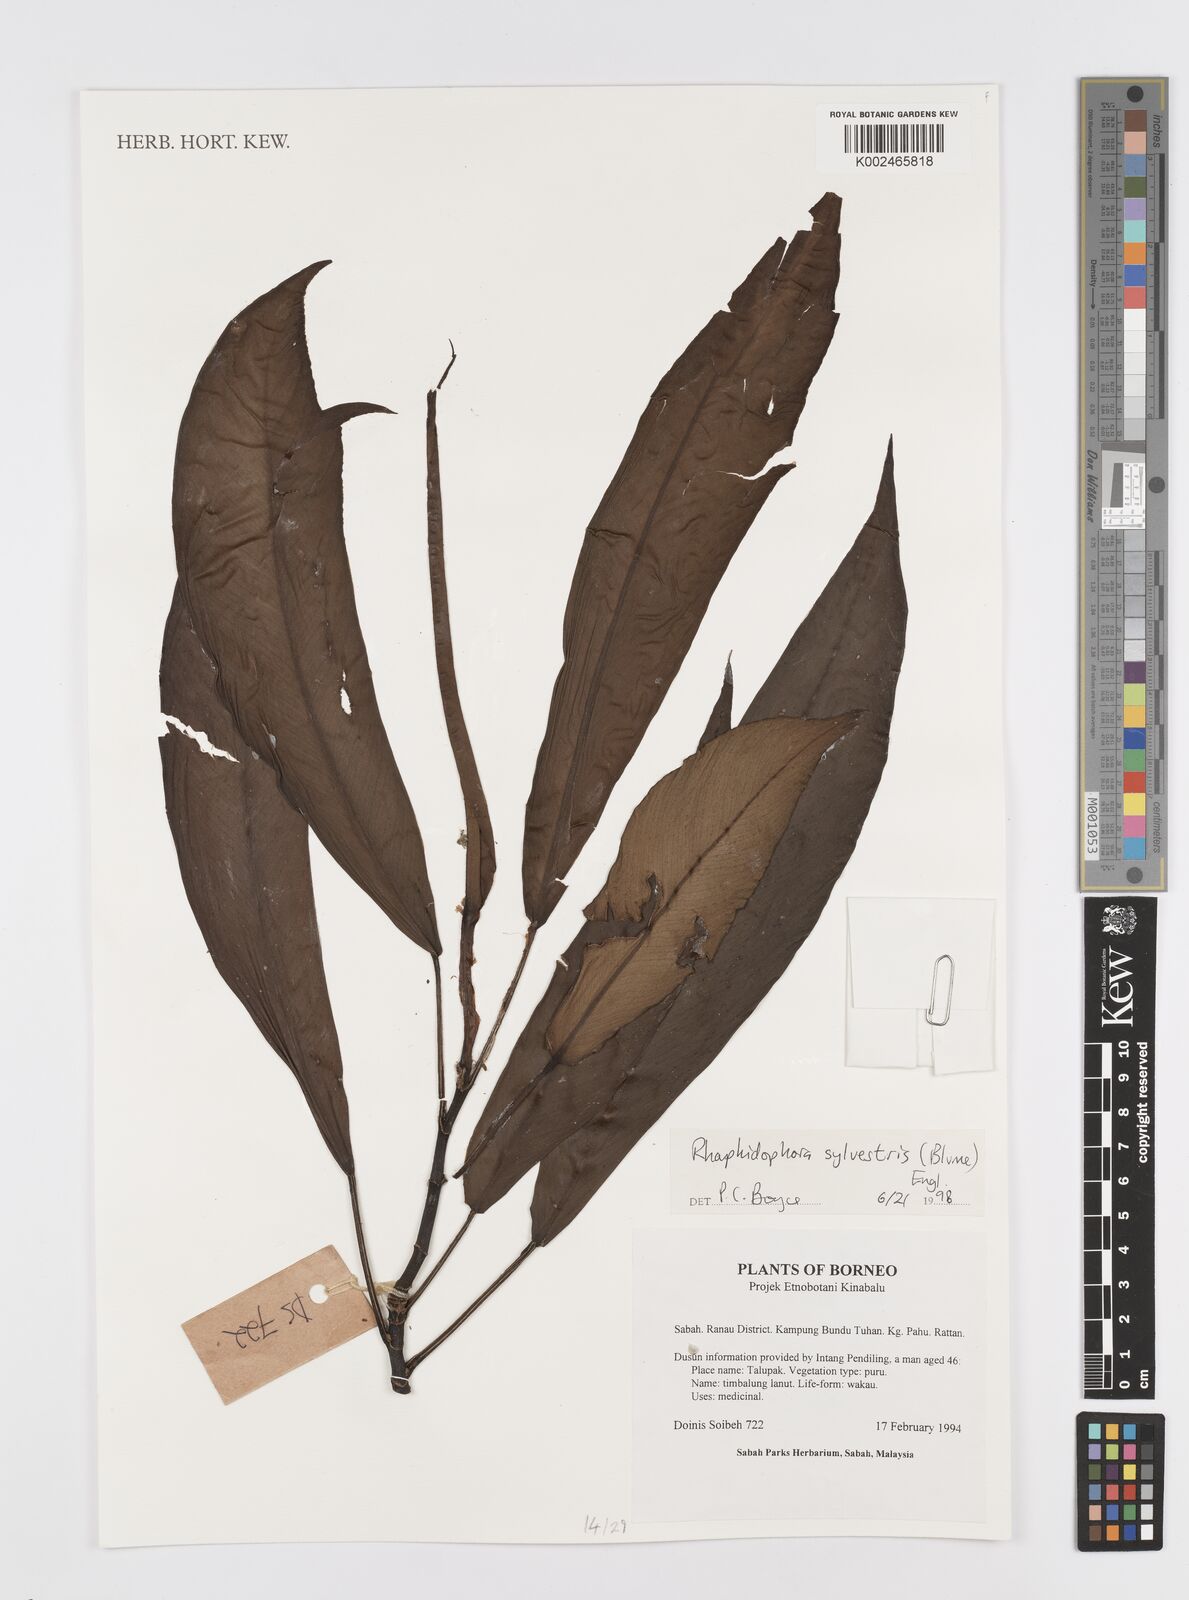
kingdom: Plantae
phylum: Tracheophyta
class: Liliopsida
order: Alismatales
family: Araceae
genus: Rhaphidophora
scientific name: Rhaphidophora sylvestris
